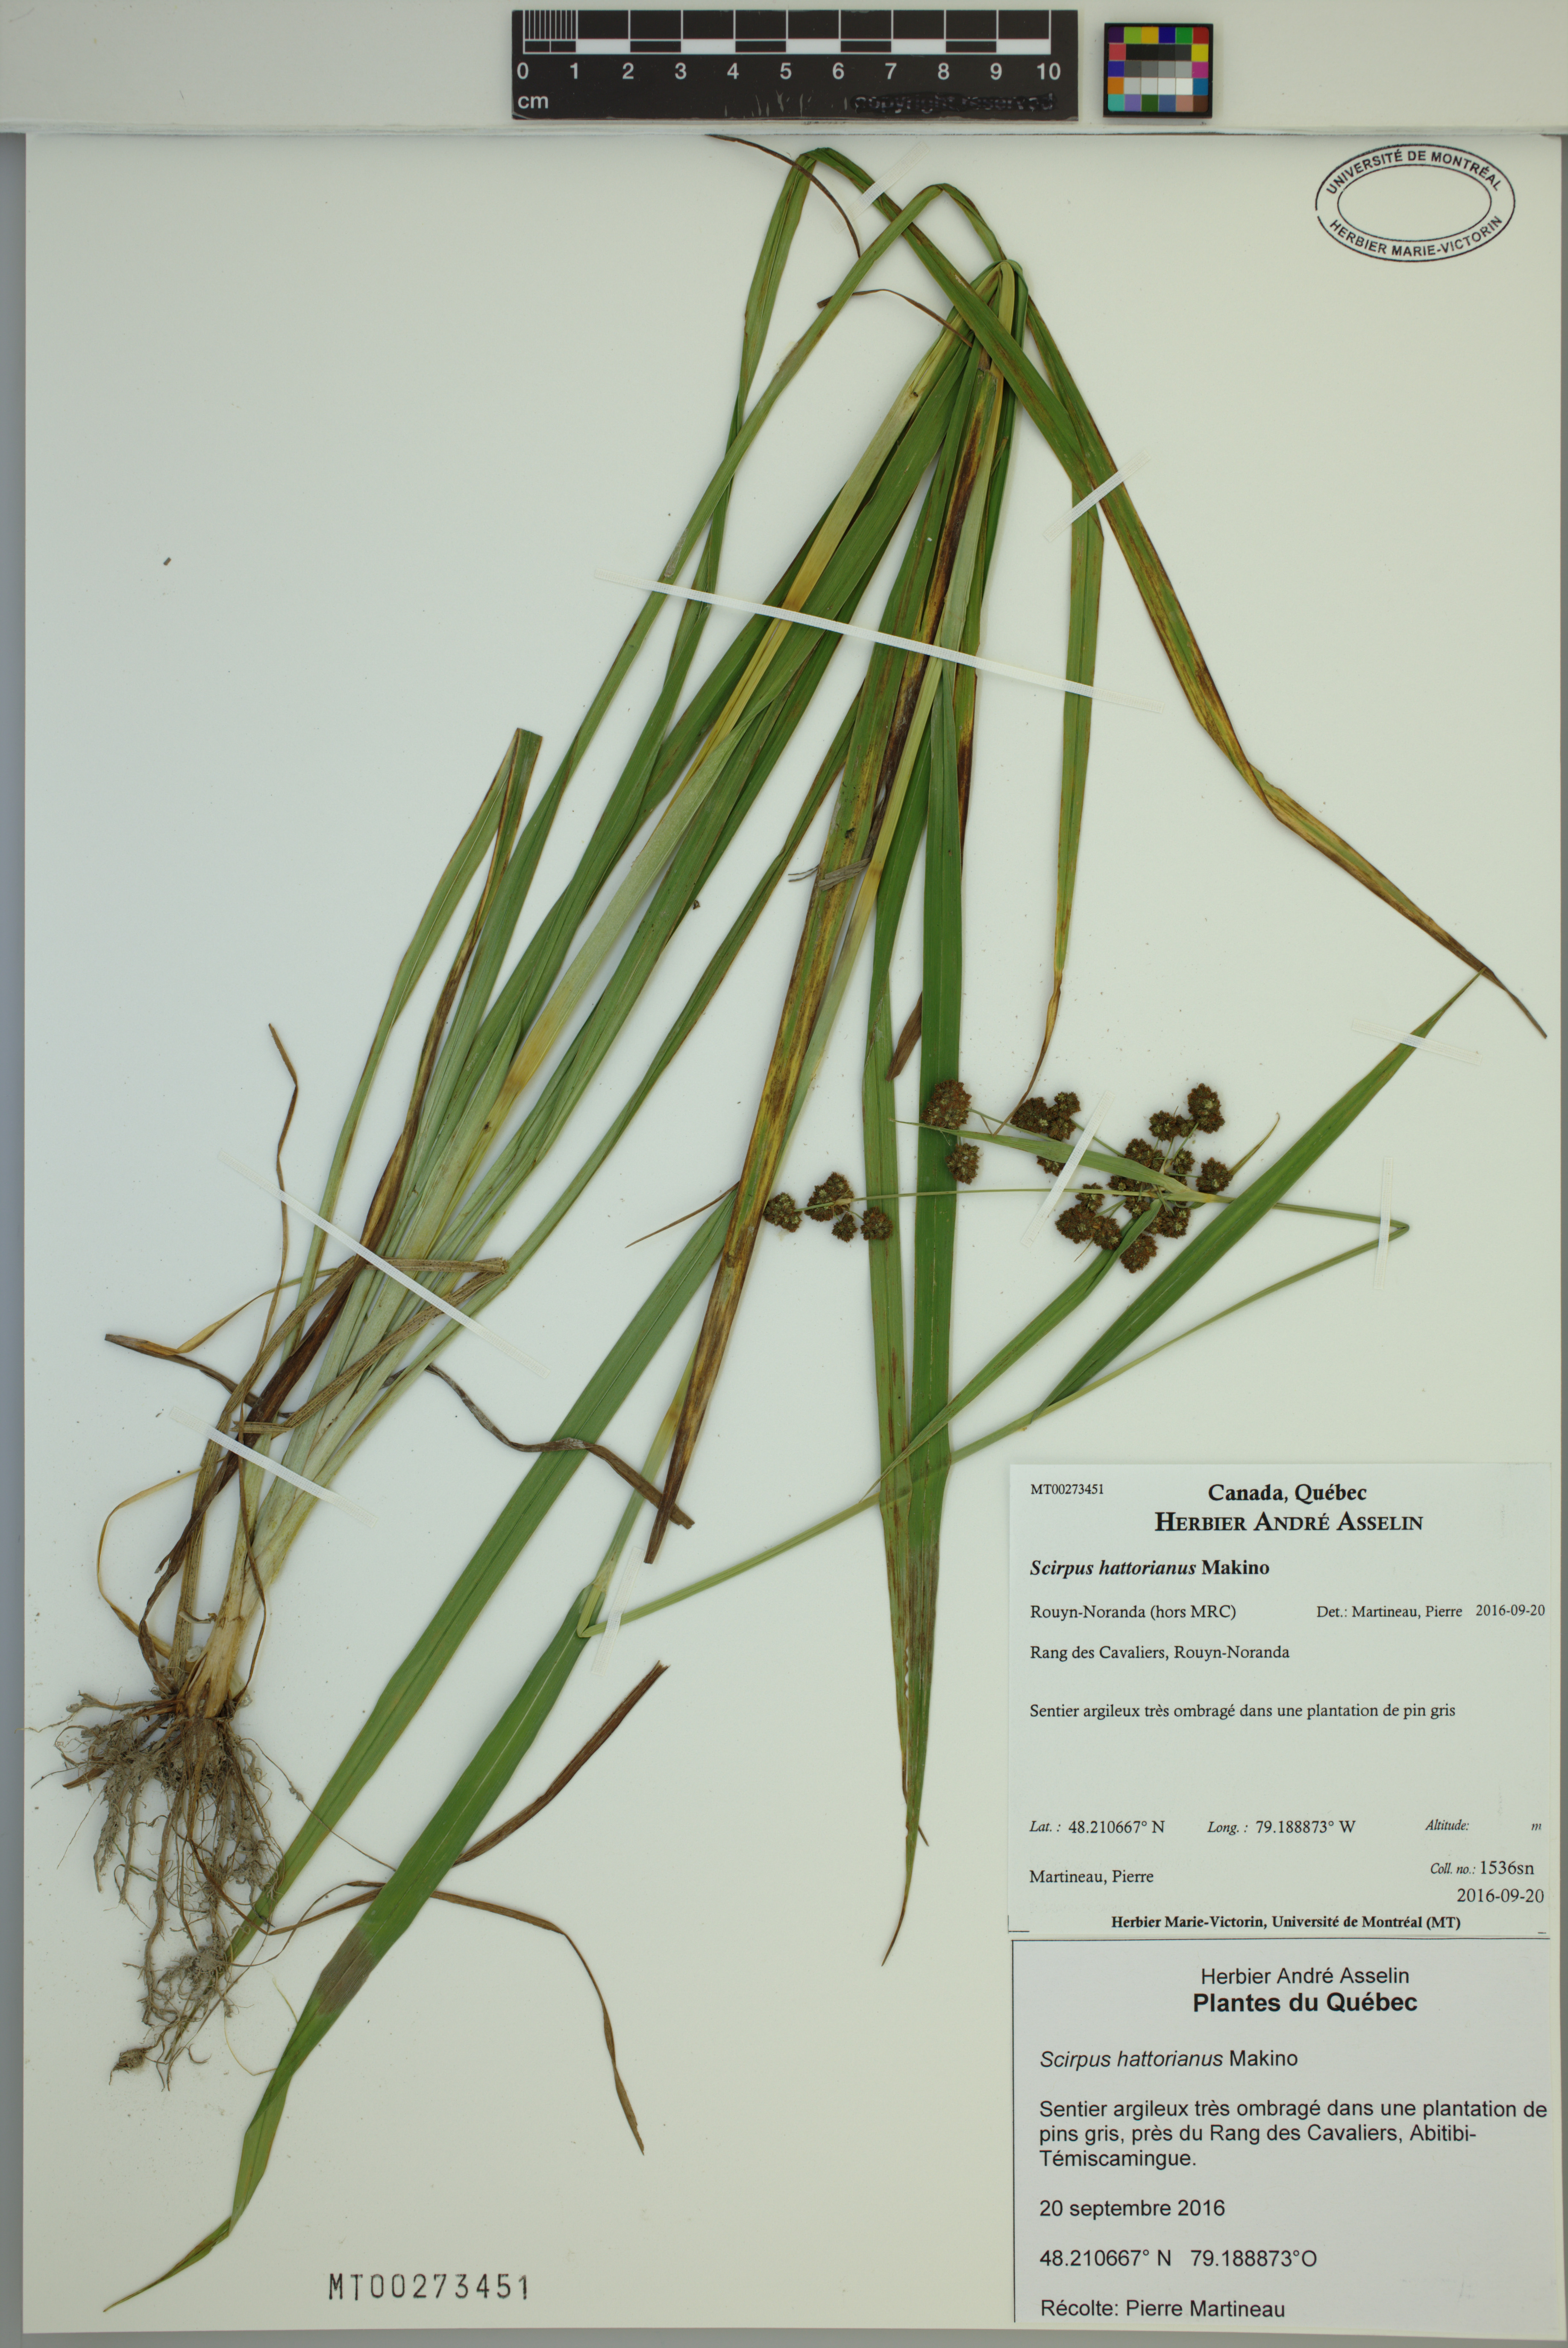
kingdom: Plantae
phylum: Tracheophyta
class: Liliopsida
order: Poales
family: Cyperaceae
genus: Scirpus
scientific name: Scirpus hattorianus
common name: Early dark-green bulrush
